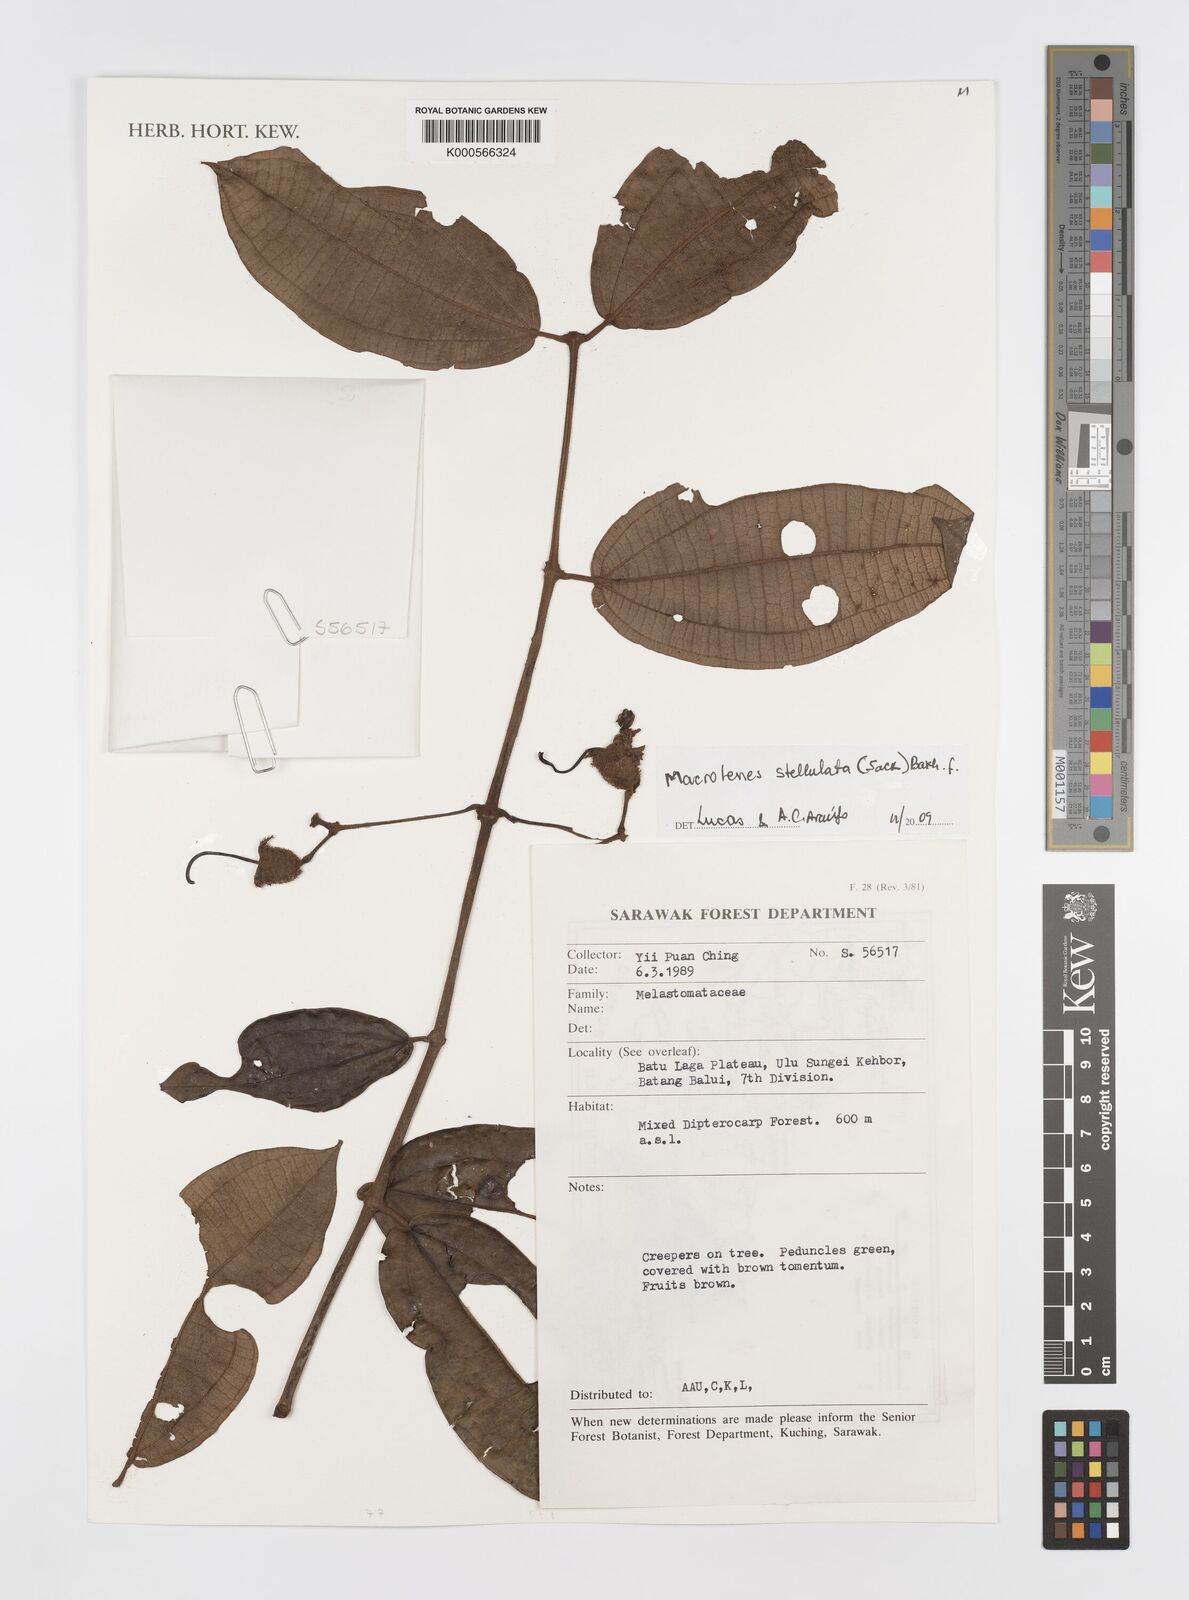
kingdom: Plantae
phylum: Tracheophyta
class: Magnoliopsida
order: Myrtales
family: Melastomataceae
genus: Macrolenes
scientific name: Macrolenes stellulata
